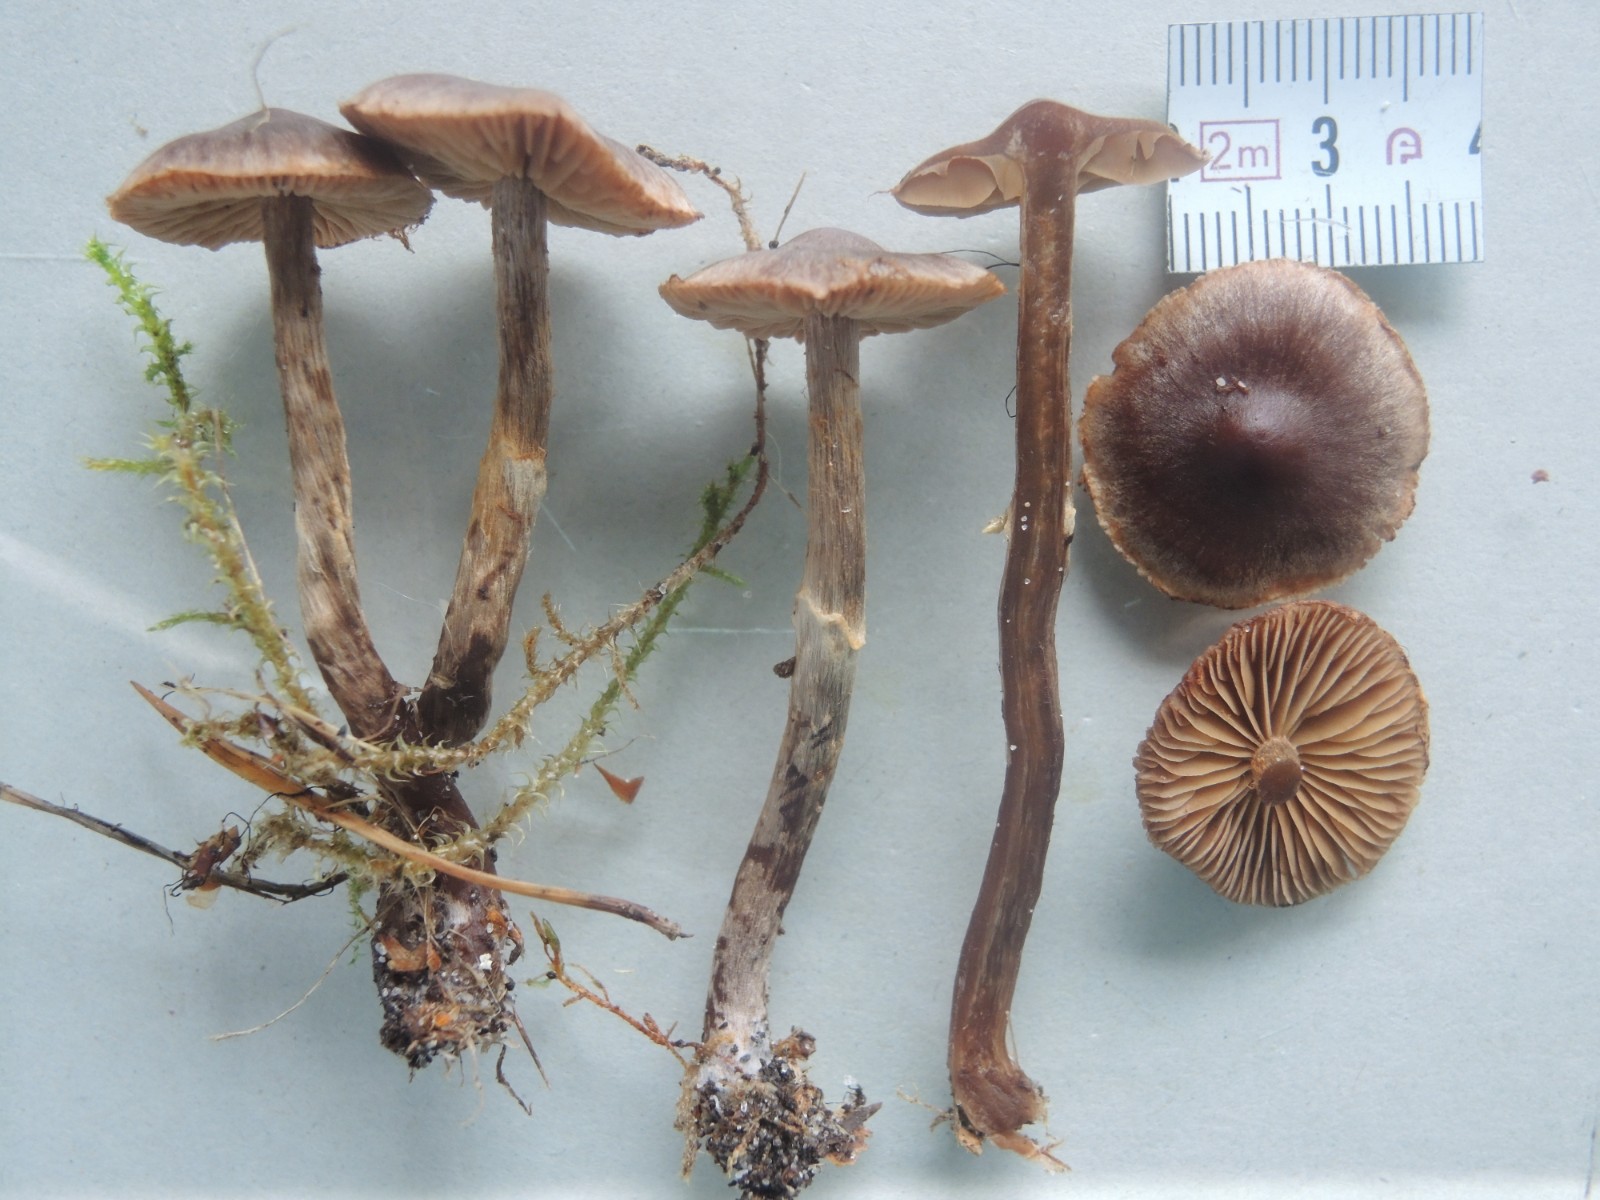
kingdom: Fungi
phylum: Basidiomycota
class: Agaricomycetes
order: Agaricales
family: Cortinariaceae
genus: Cortinarius
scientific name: Cortinarius umbrinolens
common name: mørk slørhat
